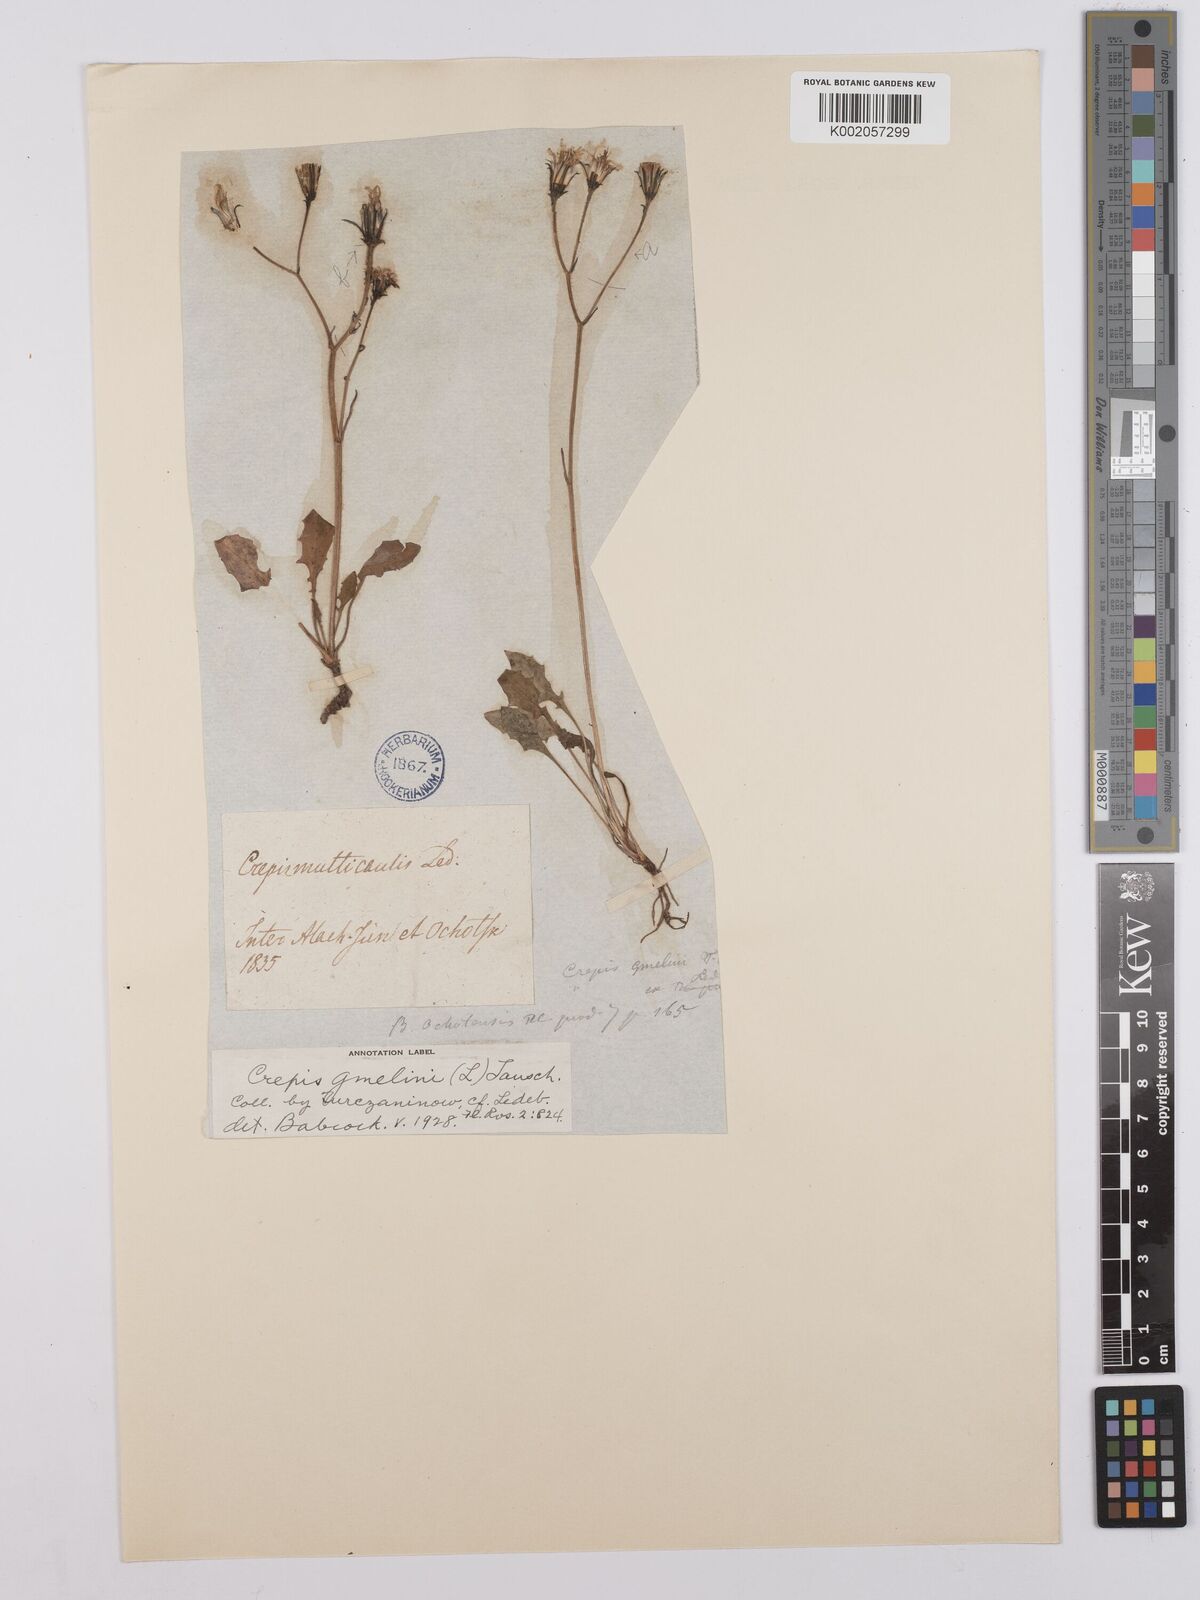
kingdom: Plantae
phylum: Tracheophyta
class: Magnoliopsida
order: Asterales
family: Asteraceae
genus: Crepis
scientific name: Crepis gmelinii
